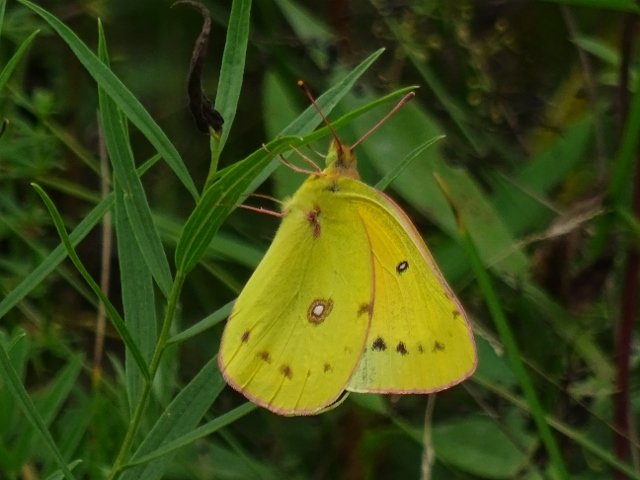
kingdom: Animalia
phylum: Arthropoda
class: Insecta
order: Lepidoptera
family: Pieridae
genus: Colias
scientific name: Colias eurytheme
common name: Orange Sulphur
